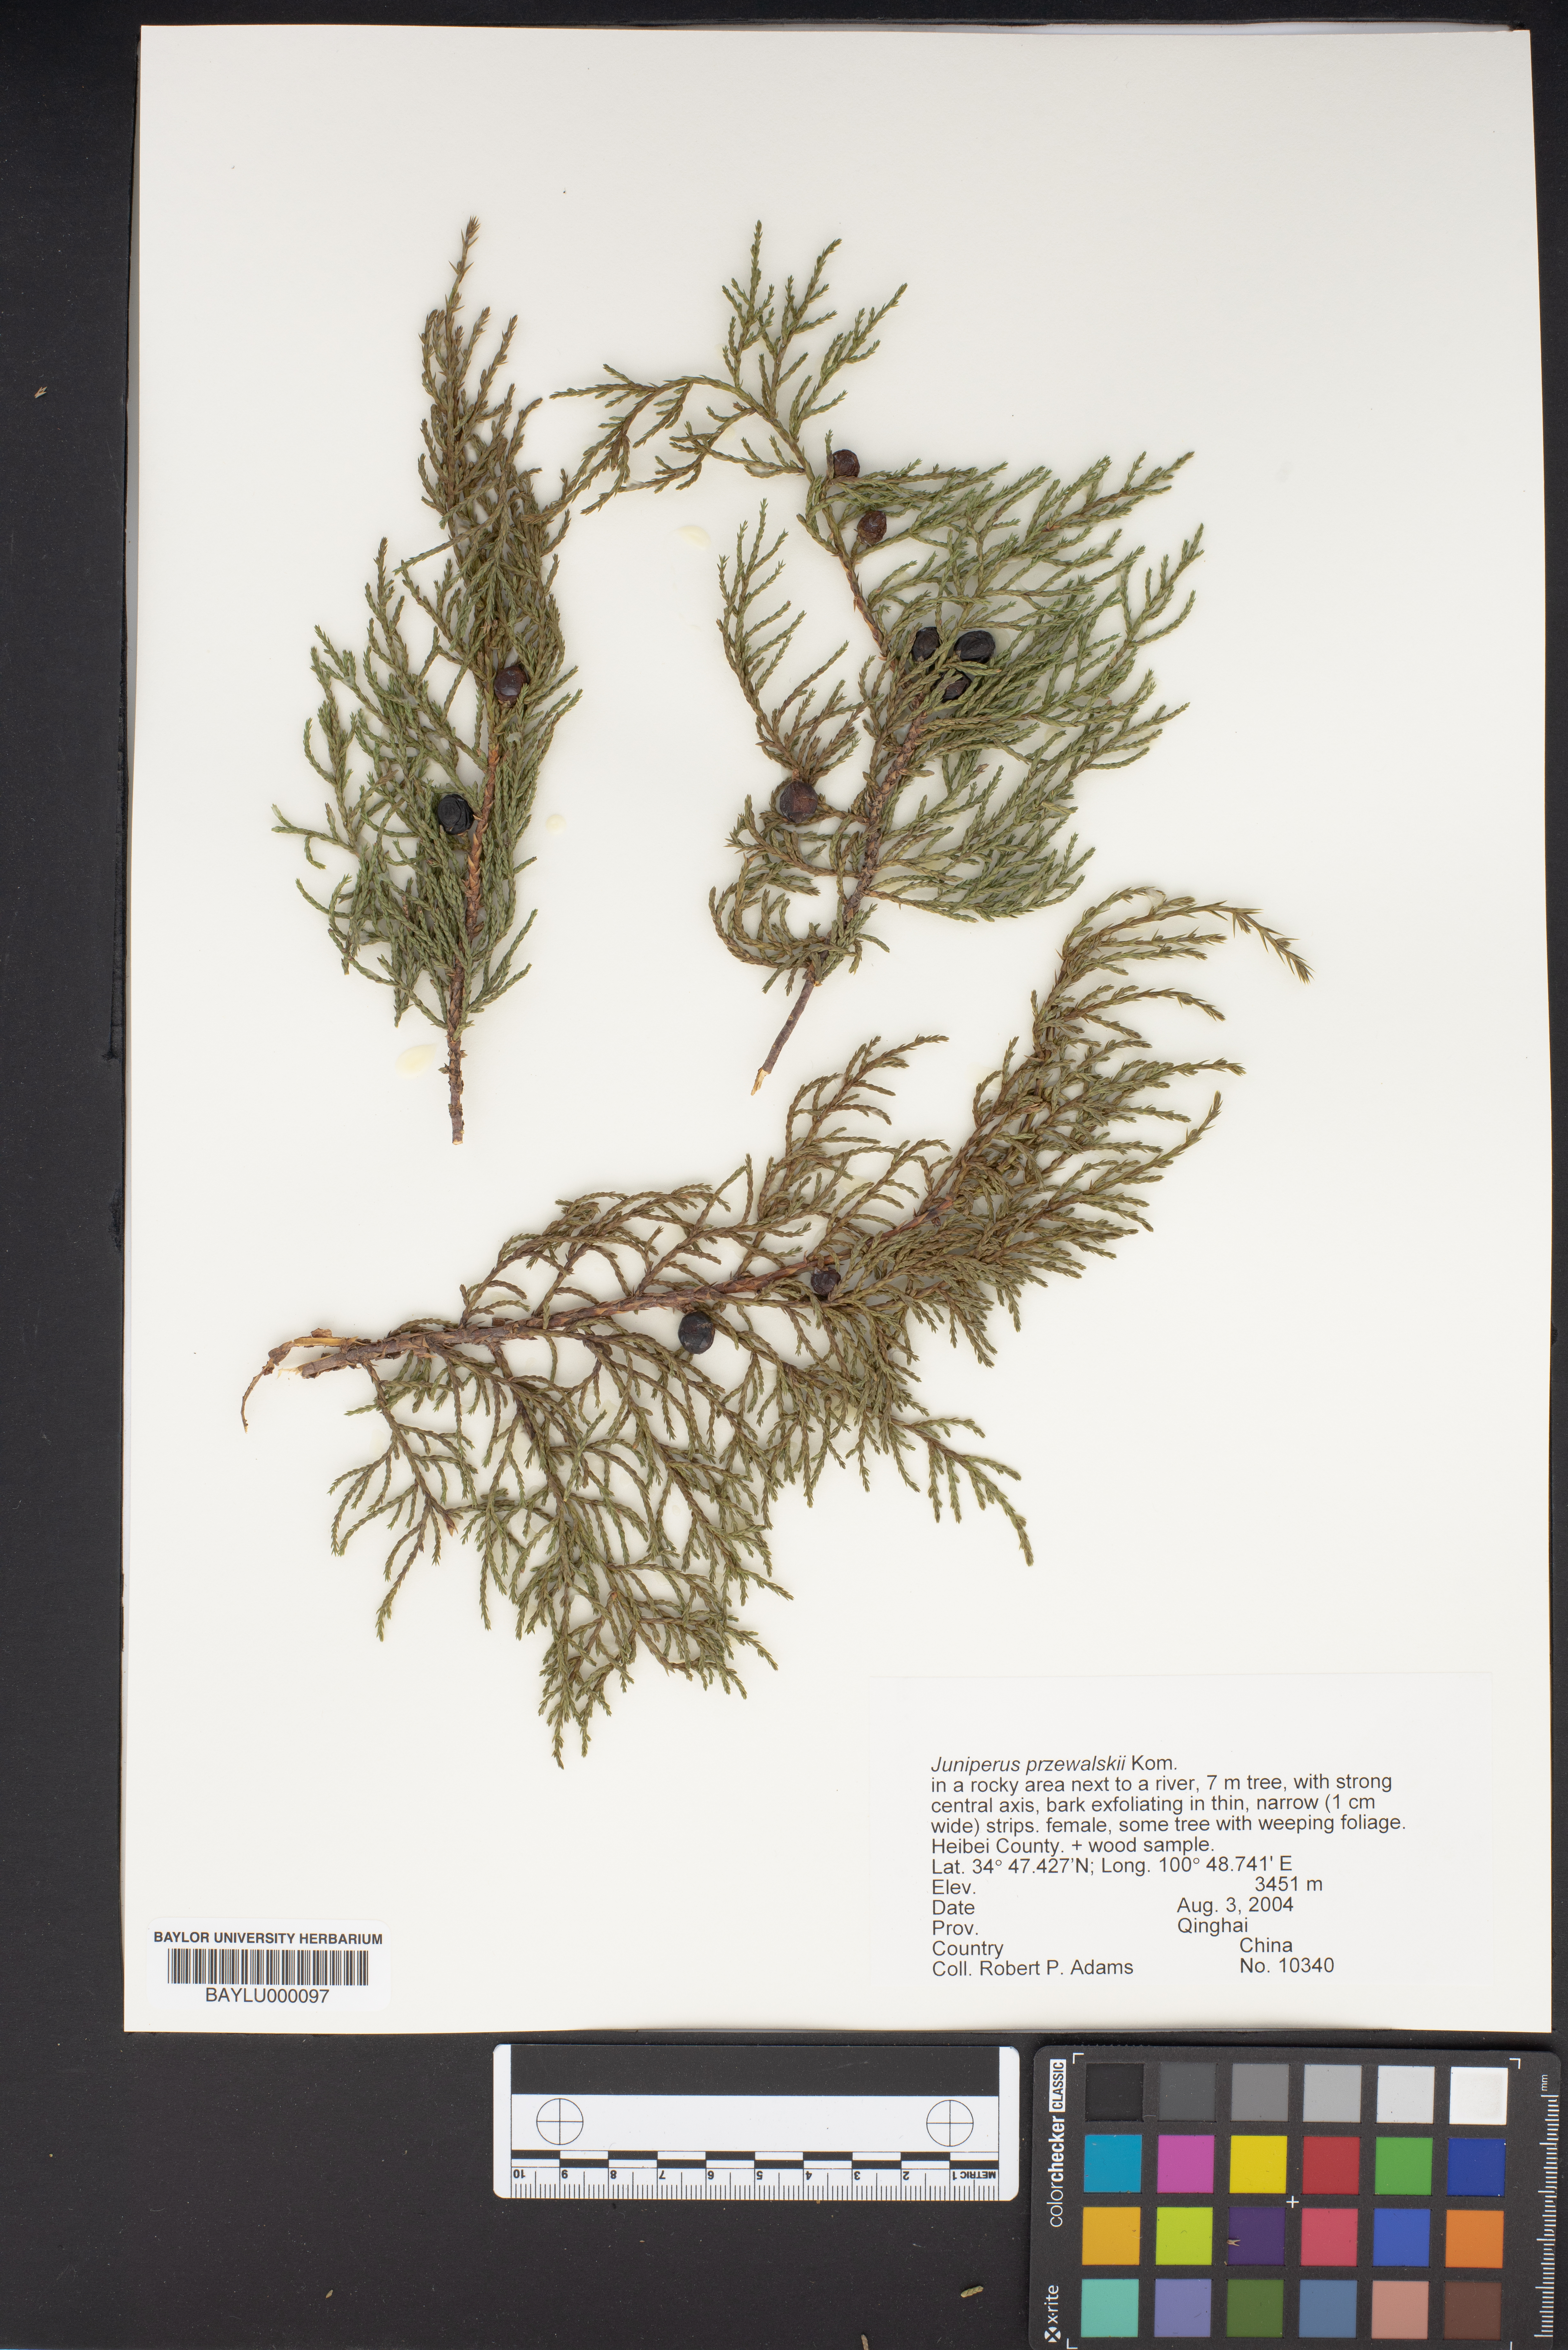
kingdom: Plantae
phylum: Tracheophyta
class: Pinopsida
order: Pinales
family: Cupressaceae
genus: Juniperus
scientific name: Juniperus przewalskii
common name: Przewalsi juniper
